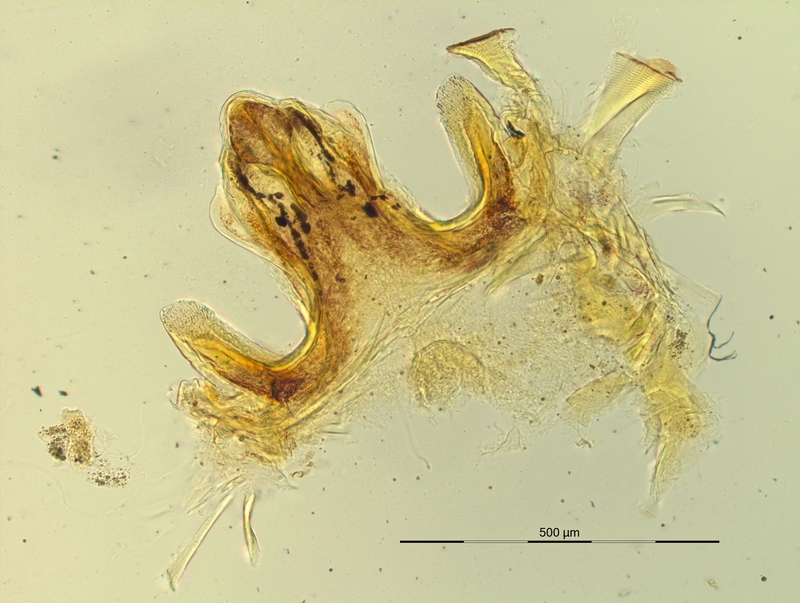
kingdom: Animalia
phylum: Arthropoda
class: Diplopoda
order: Chordeumatida
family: Craspedosomatidae
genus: Pyrgocyphosoma
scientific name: Pyrgocyphosoma tridentinum
